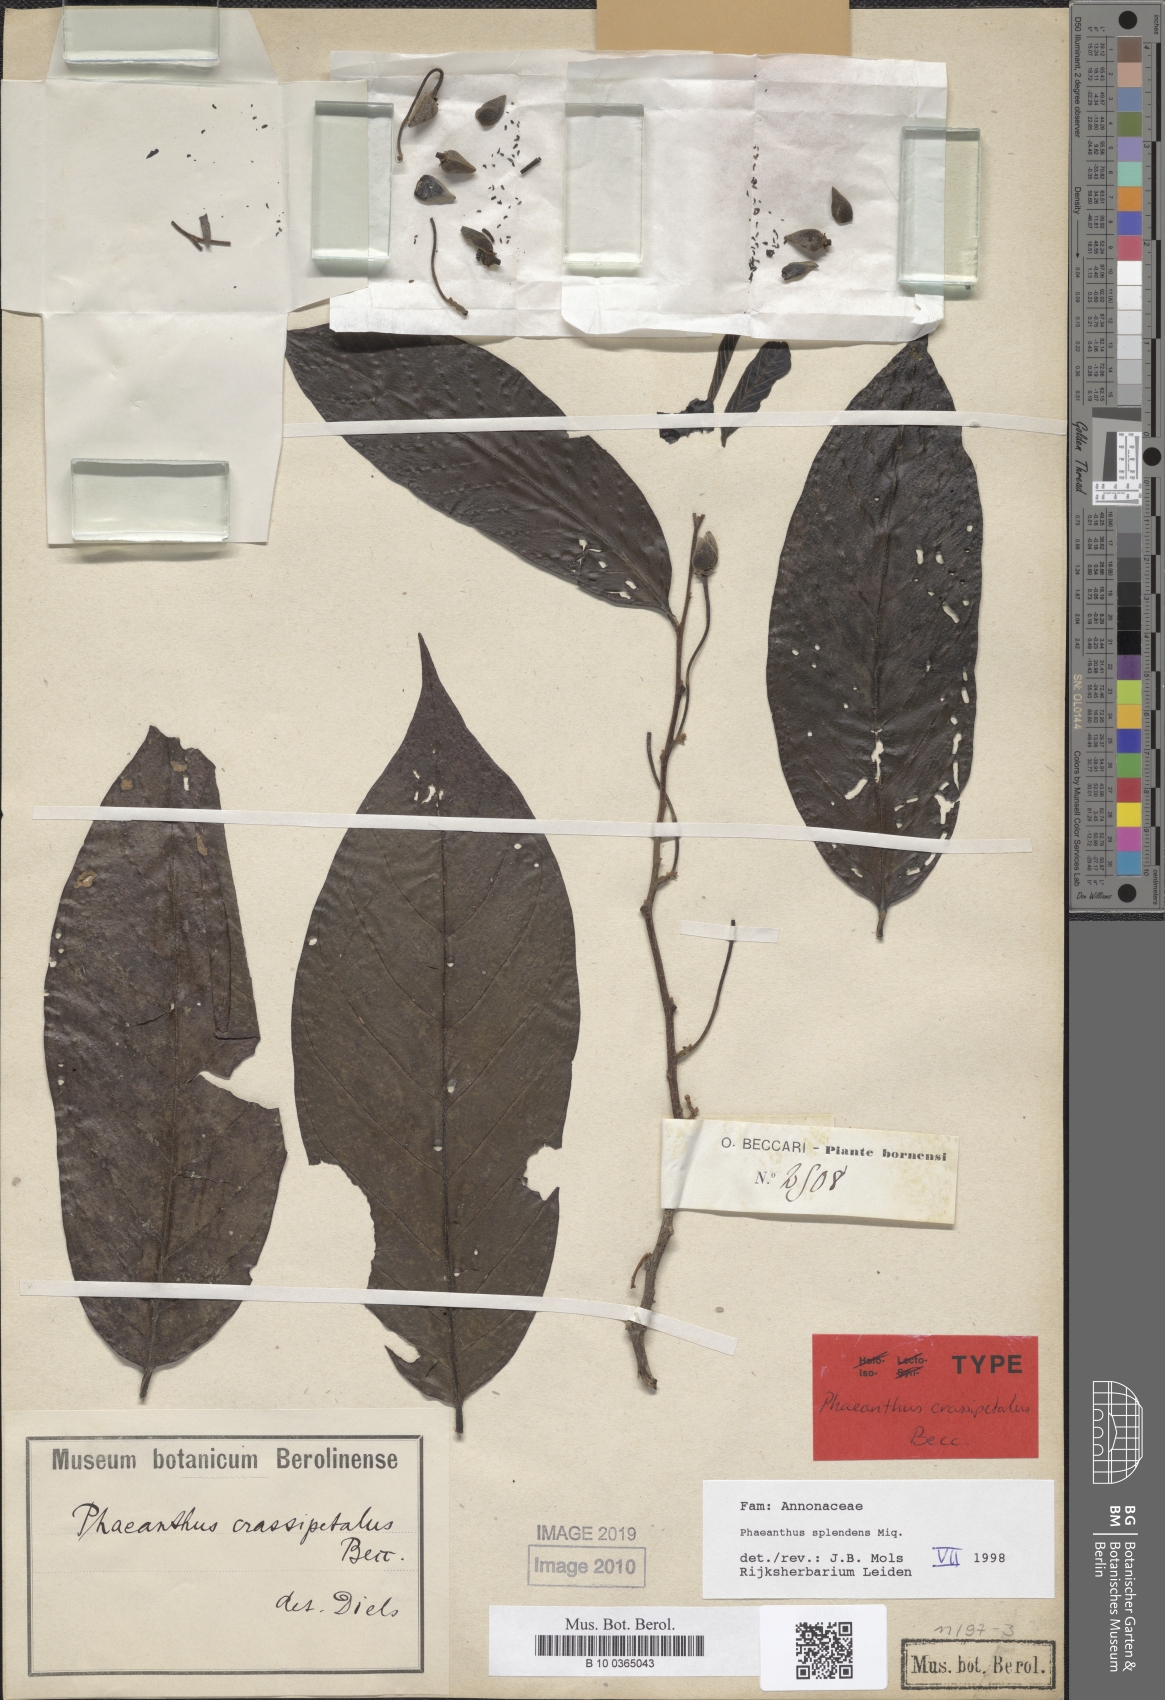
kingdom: Plantae
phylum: Tracheophyta
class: Magnoliopsida
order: Magnoliales
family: Annonaceae
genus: Phaeanthus
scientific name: Phaeanthus splendens
